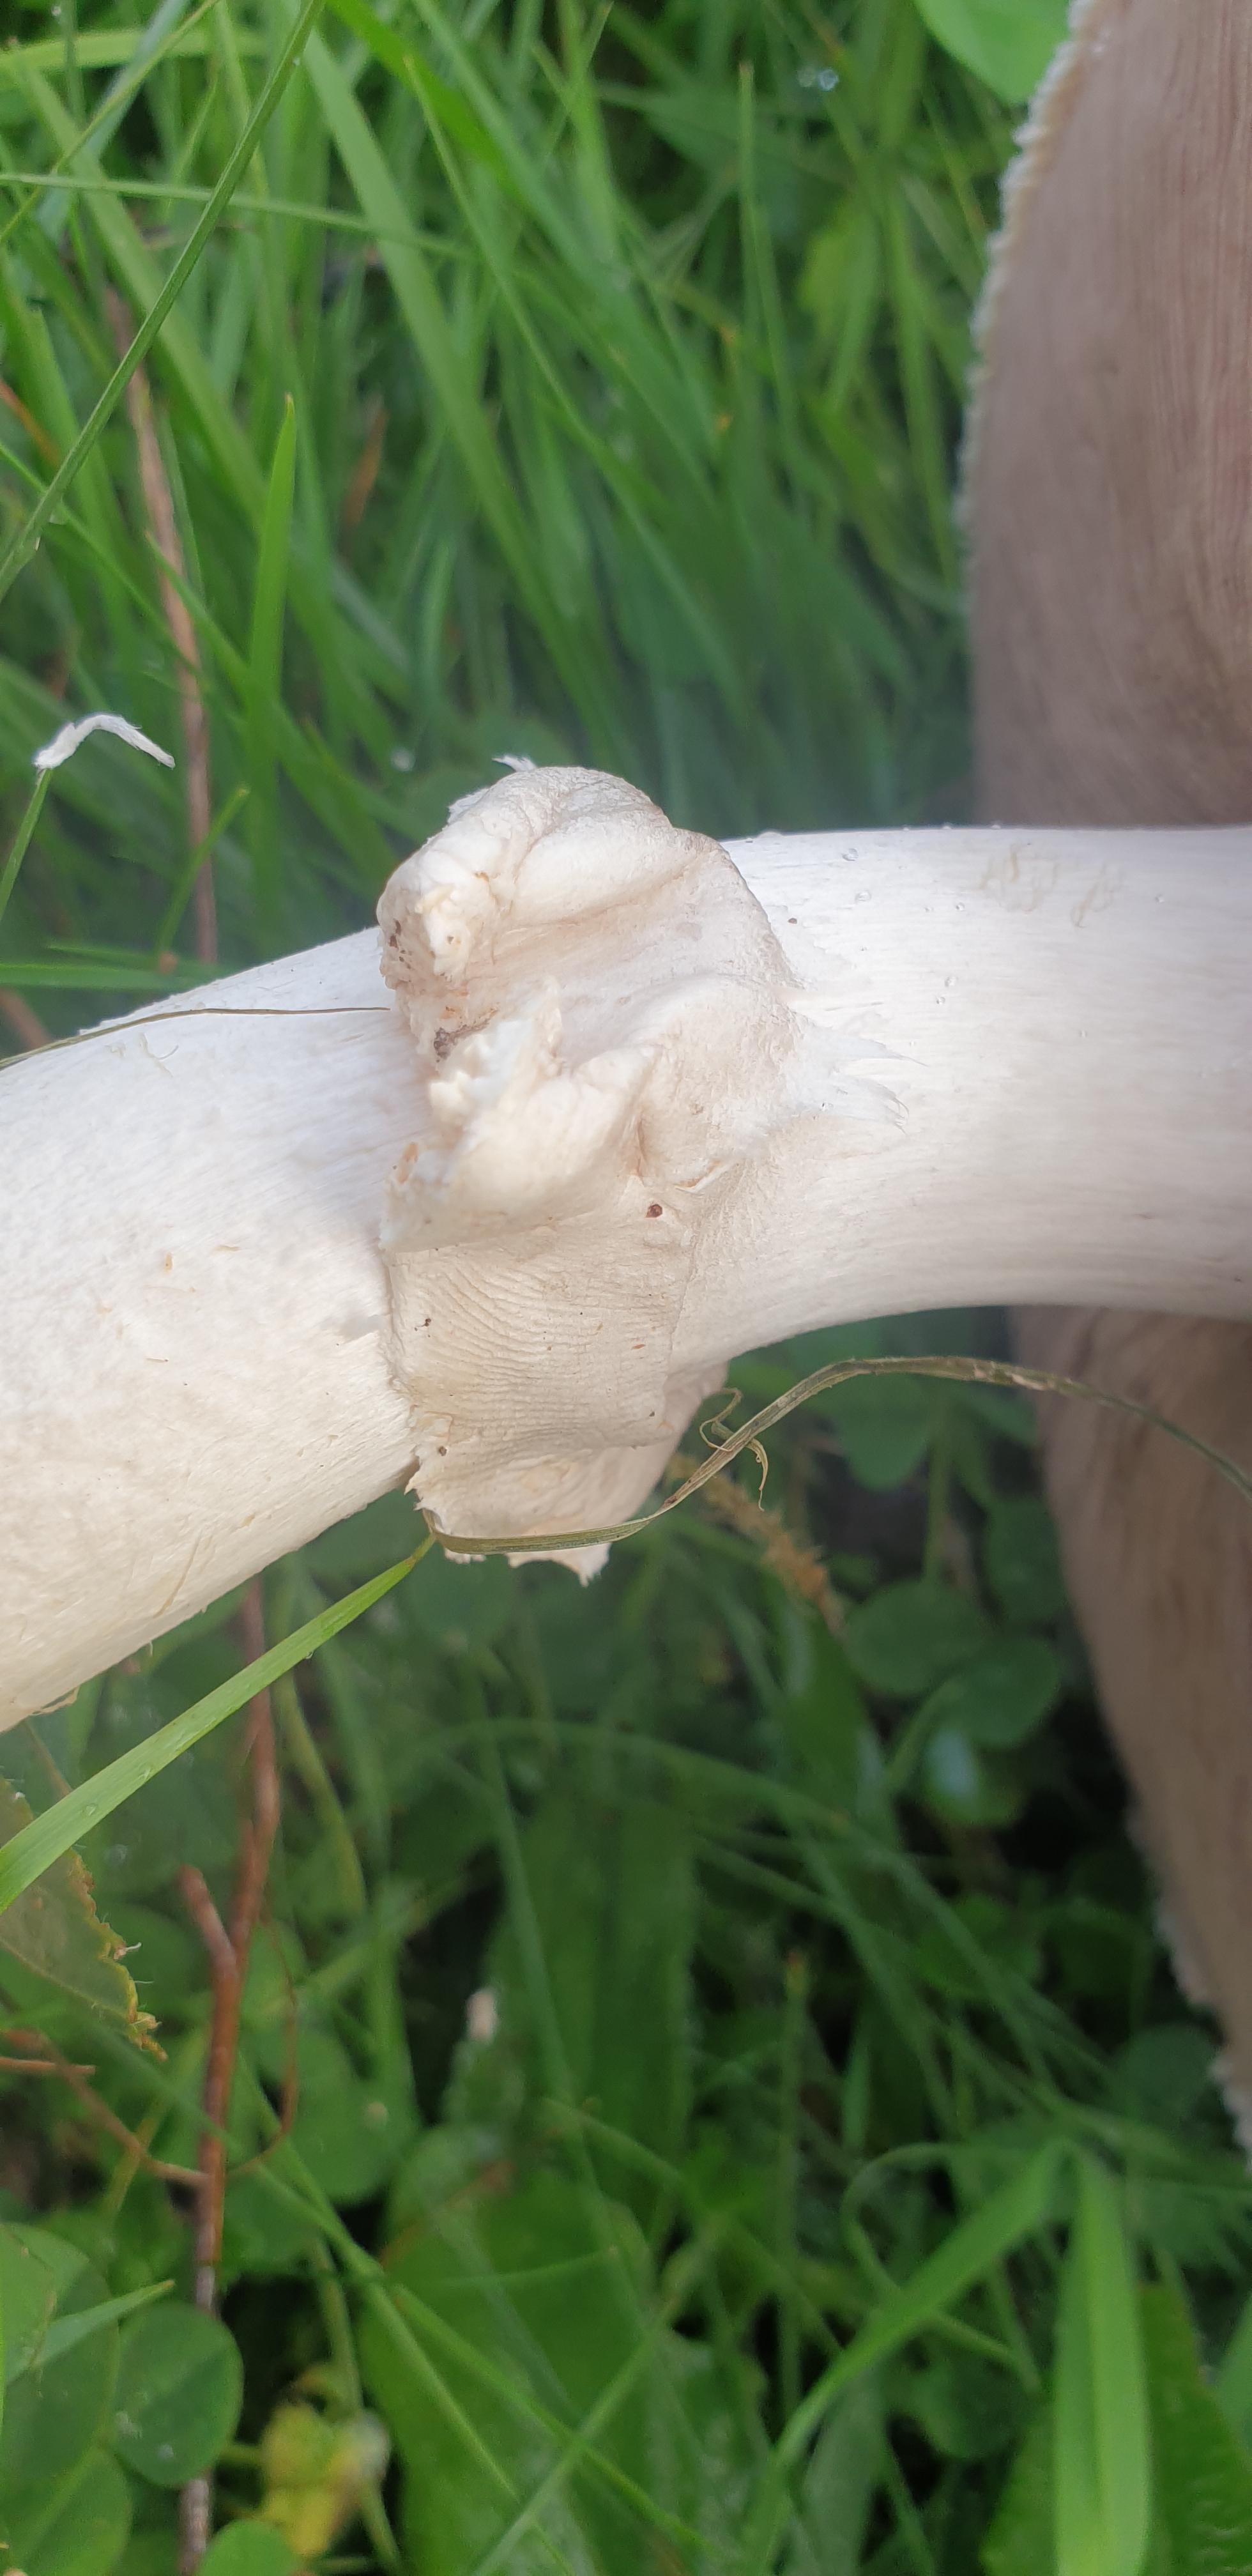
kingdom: Fungi
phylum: Basidiomycota
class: Agaricomycetes
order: Agaricales
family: Agaricaceae
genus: Agaricus
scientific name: Agaricus crocodilinus
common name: landsby-champignon
